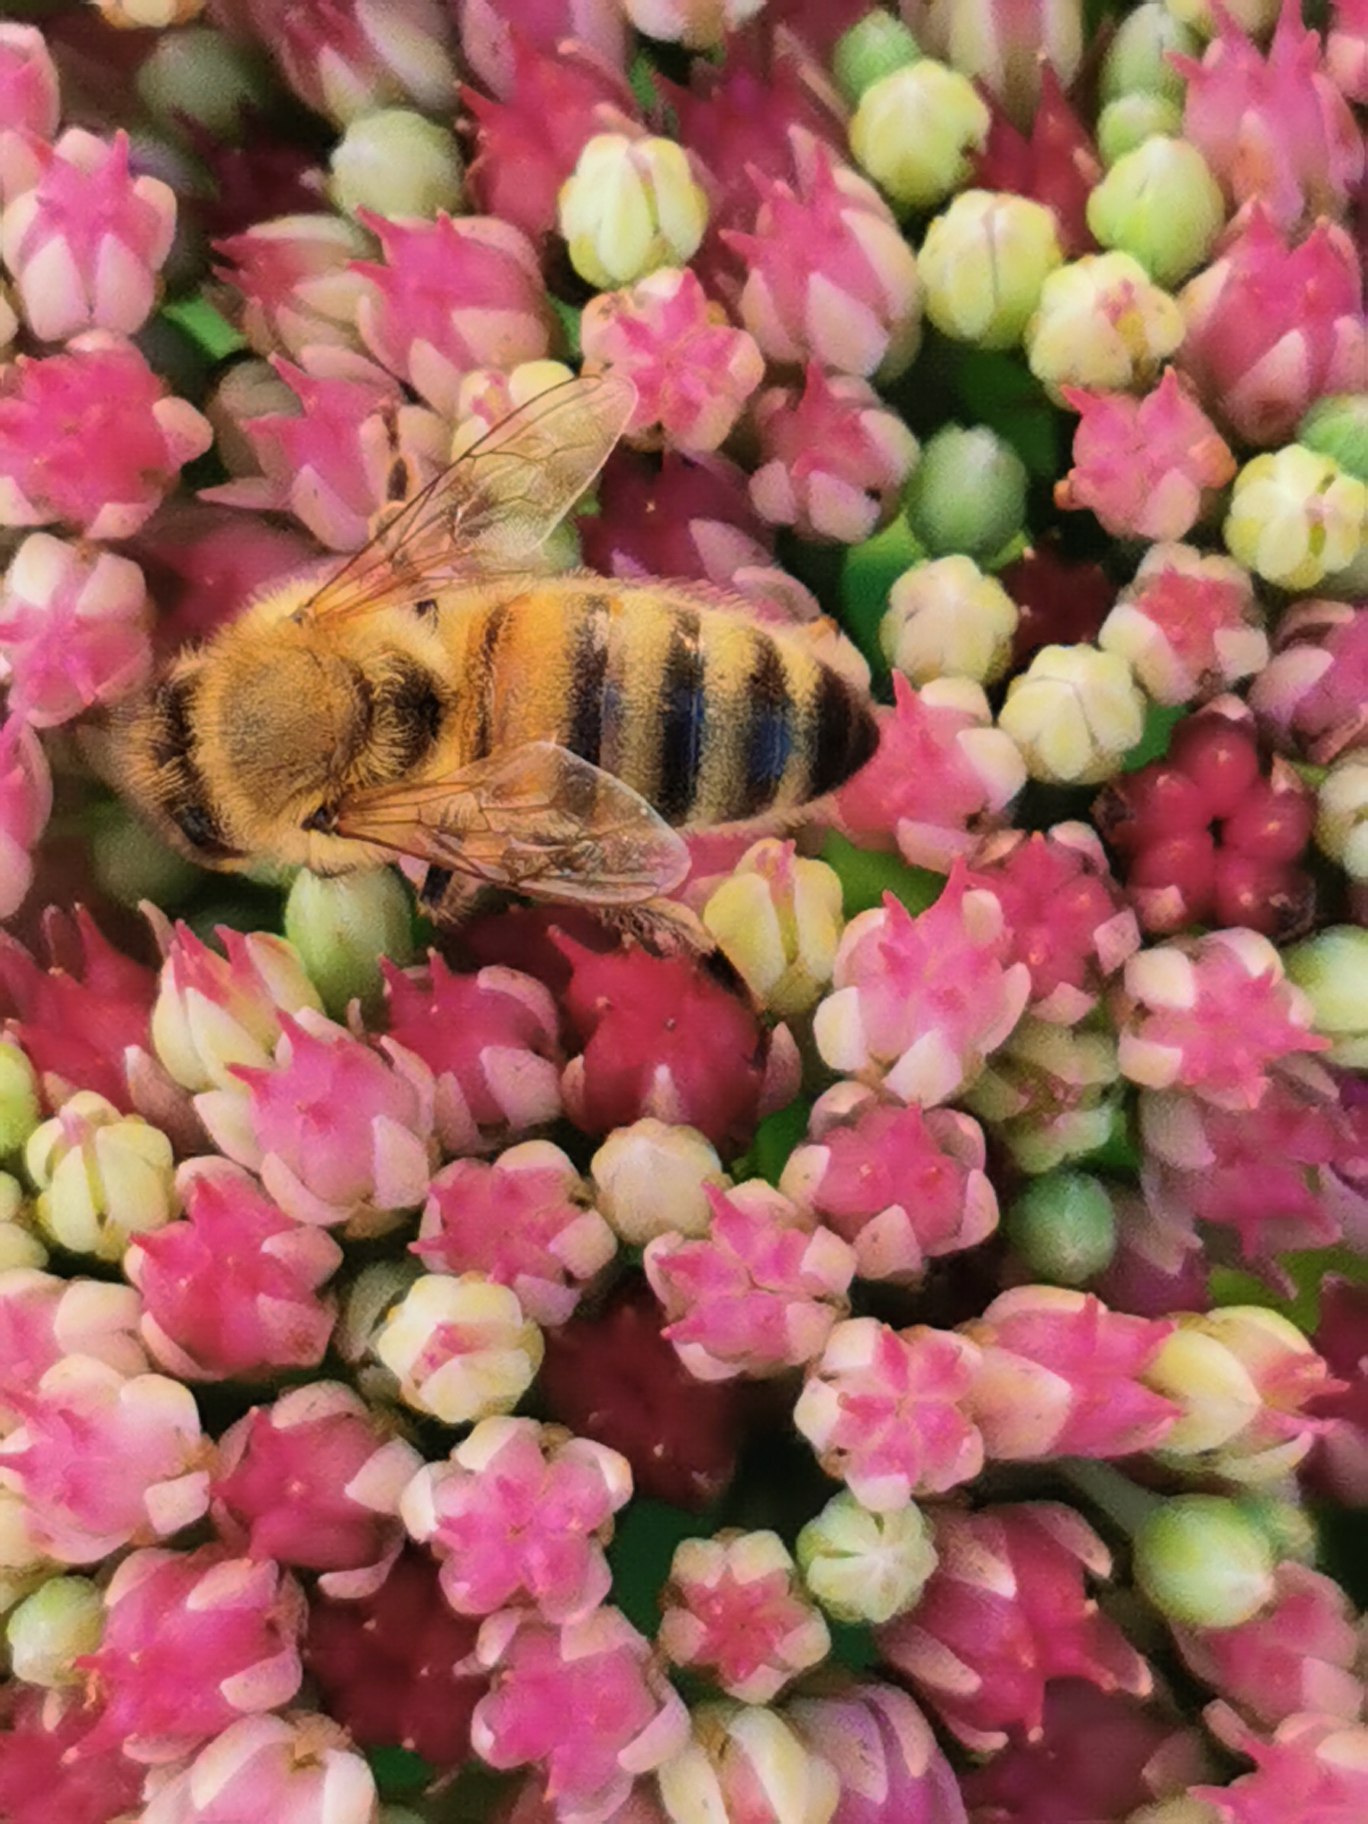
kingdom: Animalia
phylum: Arthropoda
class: Insecta
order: Hymenoptera
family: Apidae
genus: Apis
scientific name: Apis mellifera
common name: Honningbi
